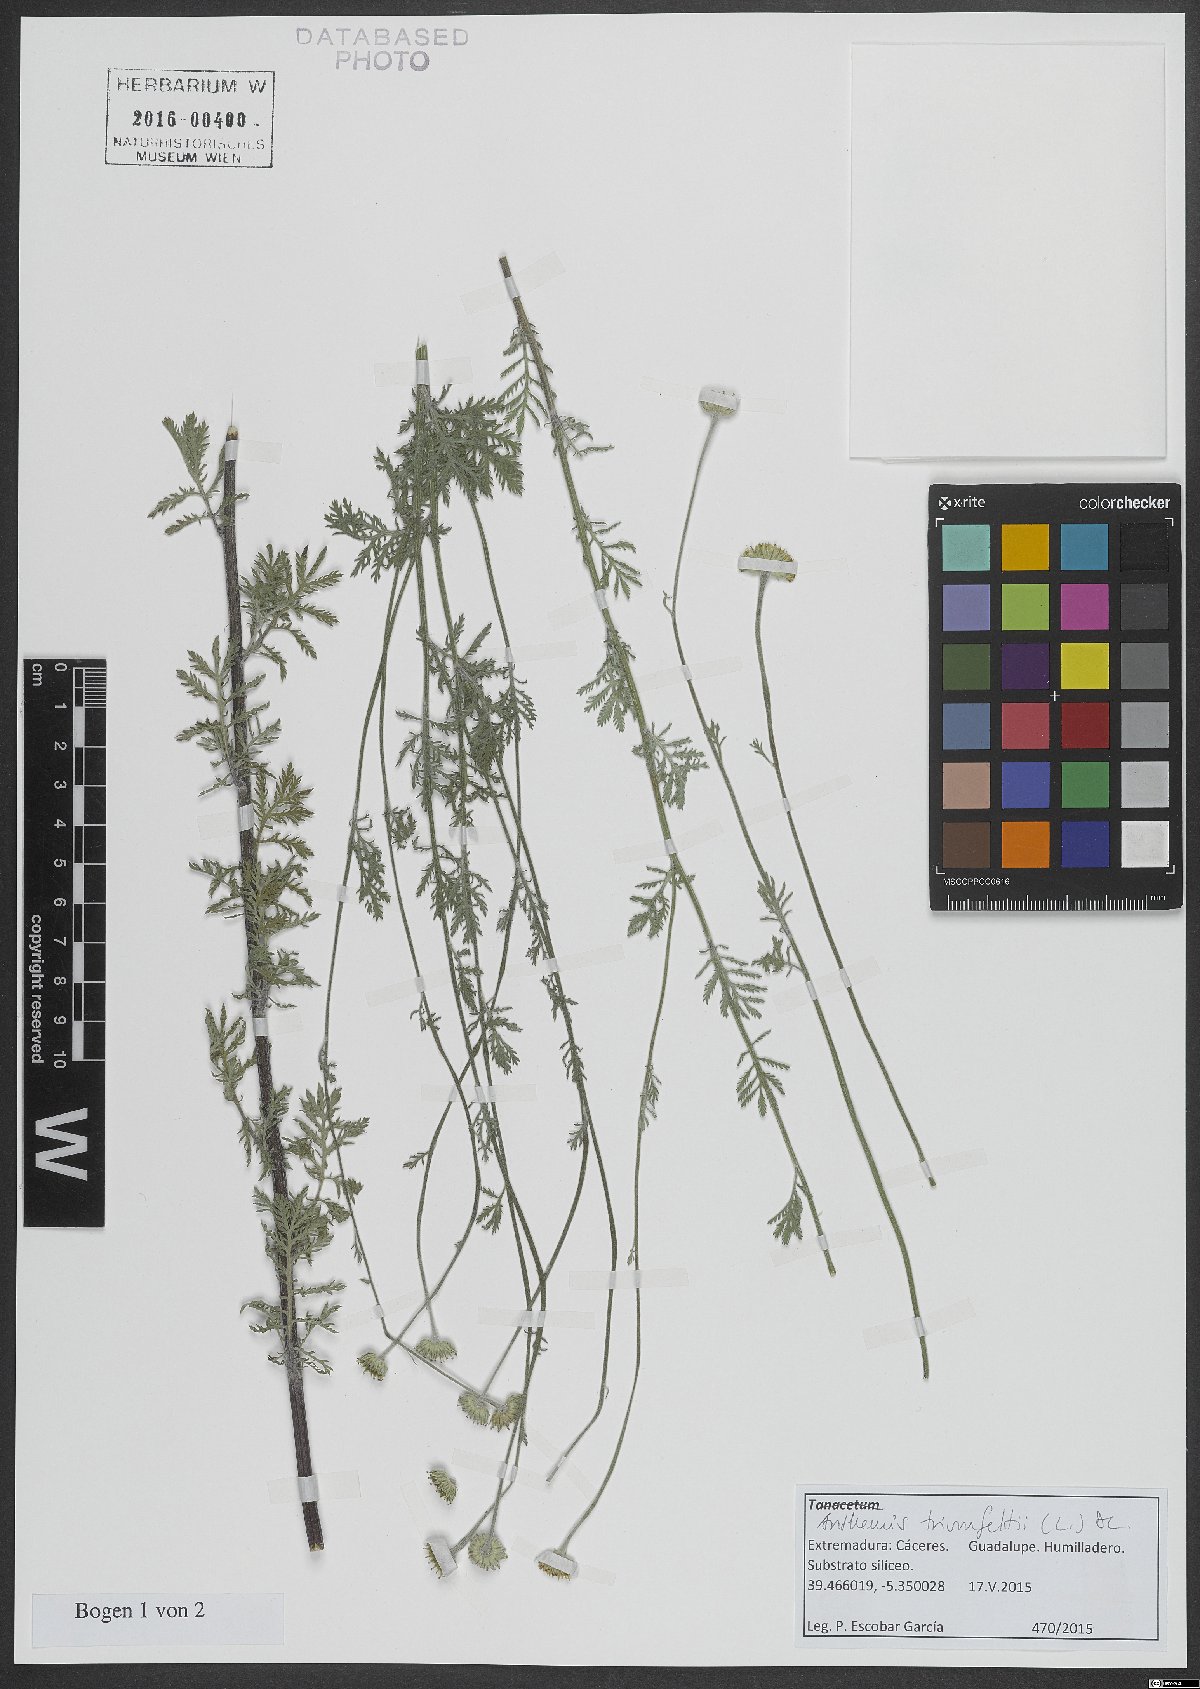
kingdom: Plantae
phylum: Tracheophyta
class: Magnoliopsida
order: Asterales
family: Asteraceae
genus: Cota
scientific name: Cota triumfetti
